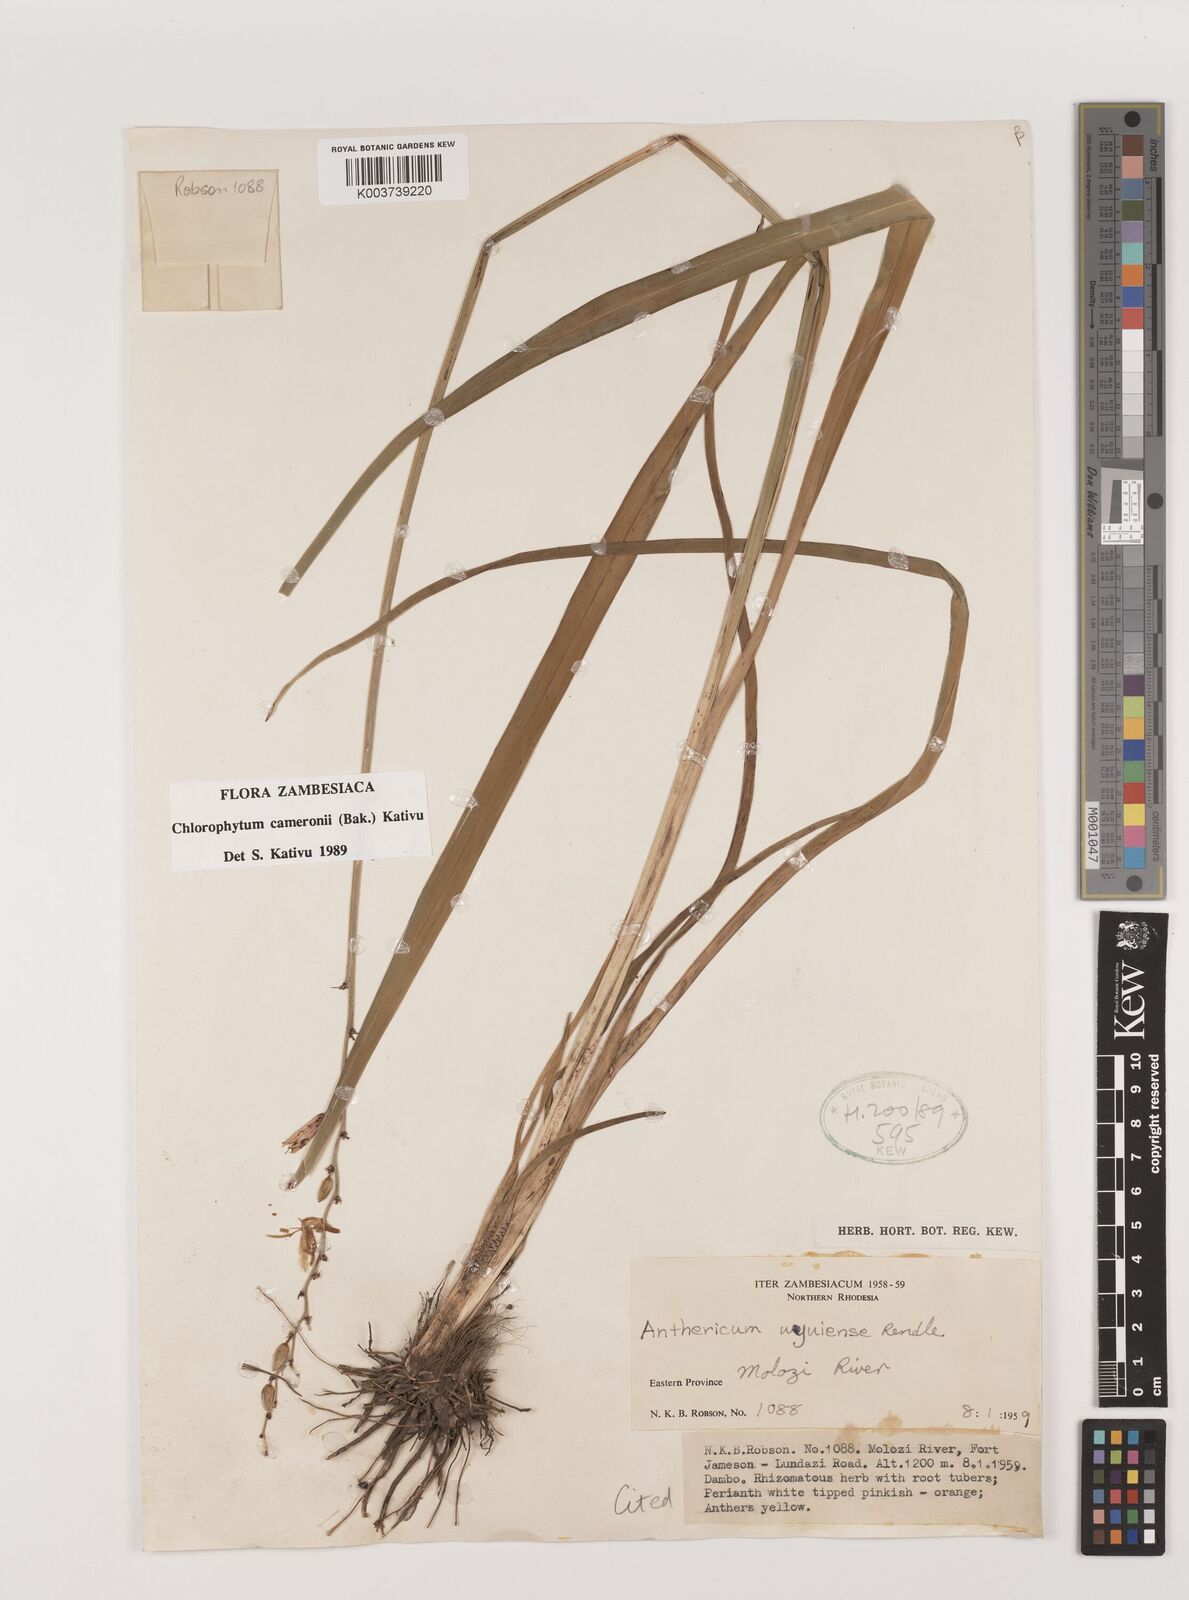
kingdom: Plantae
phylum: Tracheophyta
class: Liliopsida
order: Asparagales
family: Asparagaceae
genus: Chlorophytum
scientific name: Chlorophytum cameronii
